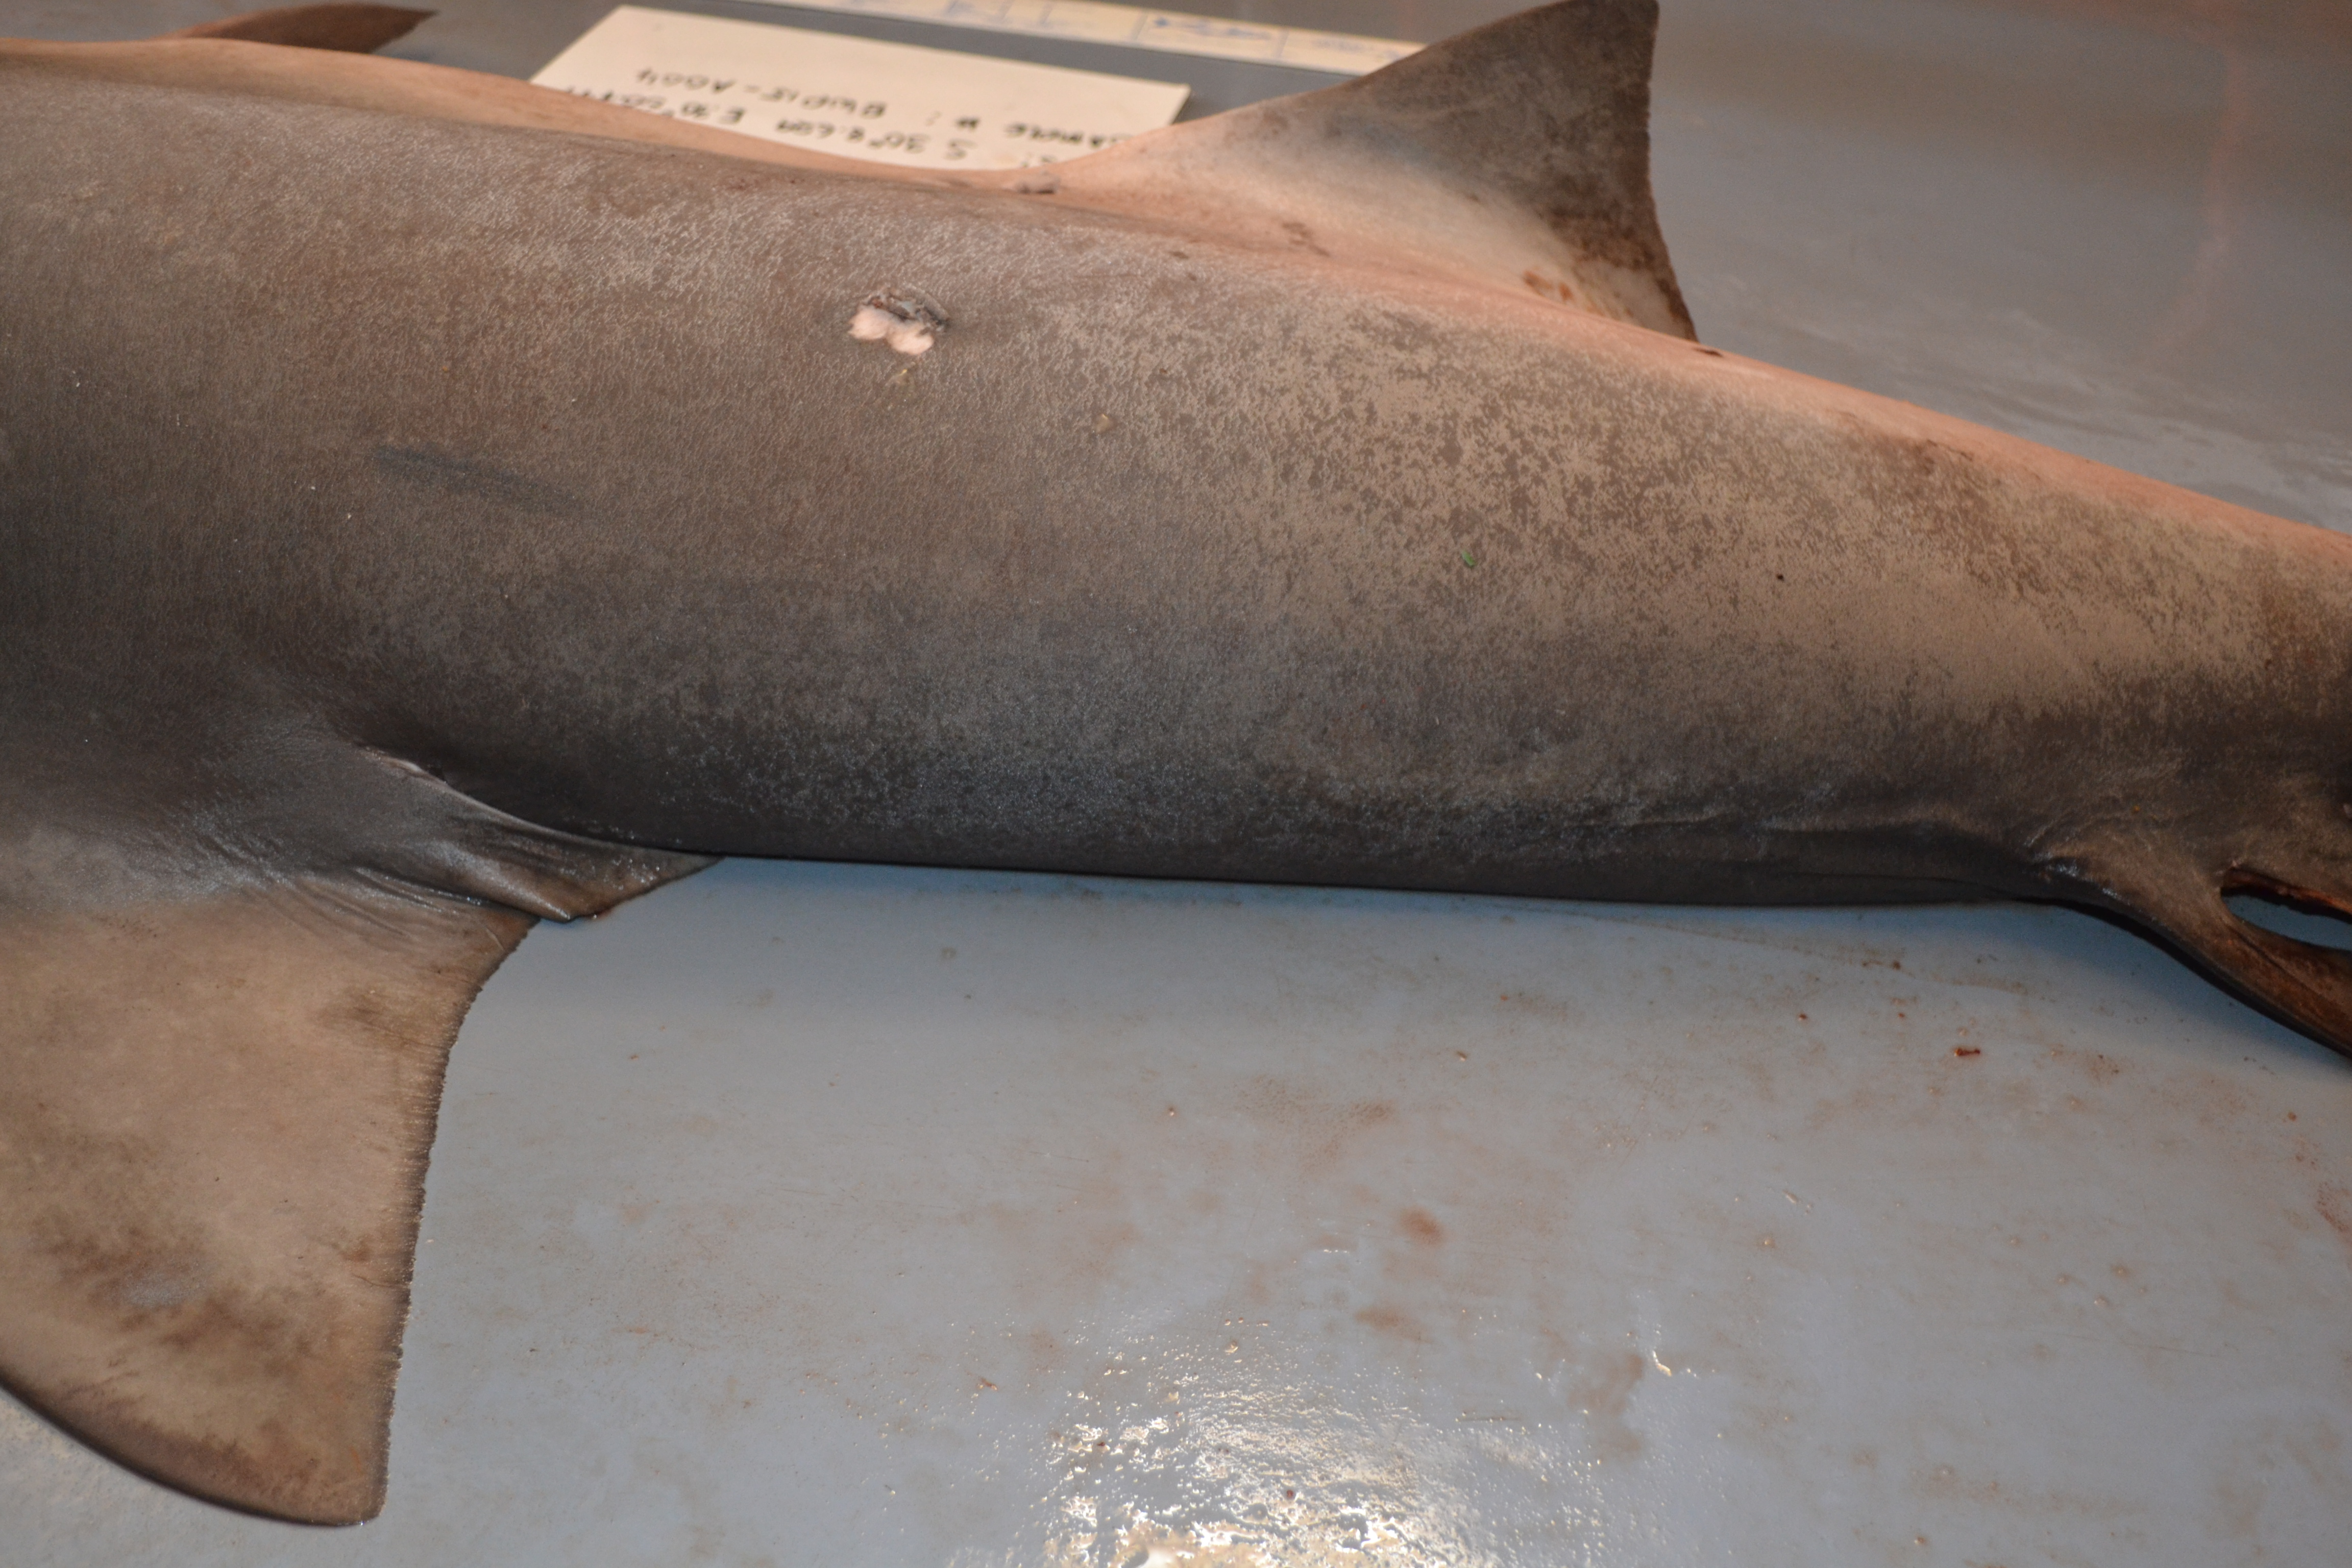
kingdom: Animalia
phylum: Chordata
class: Elasmobranchii
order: Carcharhiniformes
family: Carcharhinidae
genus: Carcharhinus
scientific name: Carcharhinus leucas
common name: Bull shark
